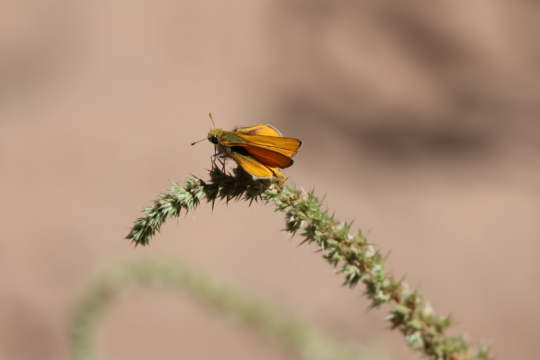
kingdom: Animalia
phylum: Arthropoda
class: Insecta
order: Lepidoptera
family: Hesperiidae
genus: Copaeodes
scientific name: Copaeodes aurantiaca
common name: Orange Skipperling
